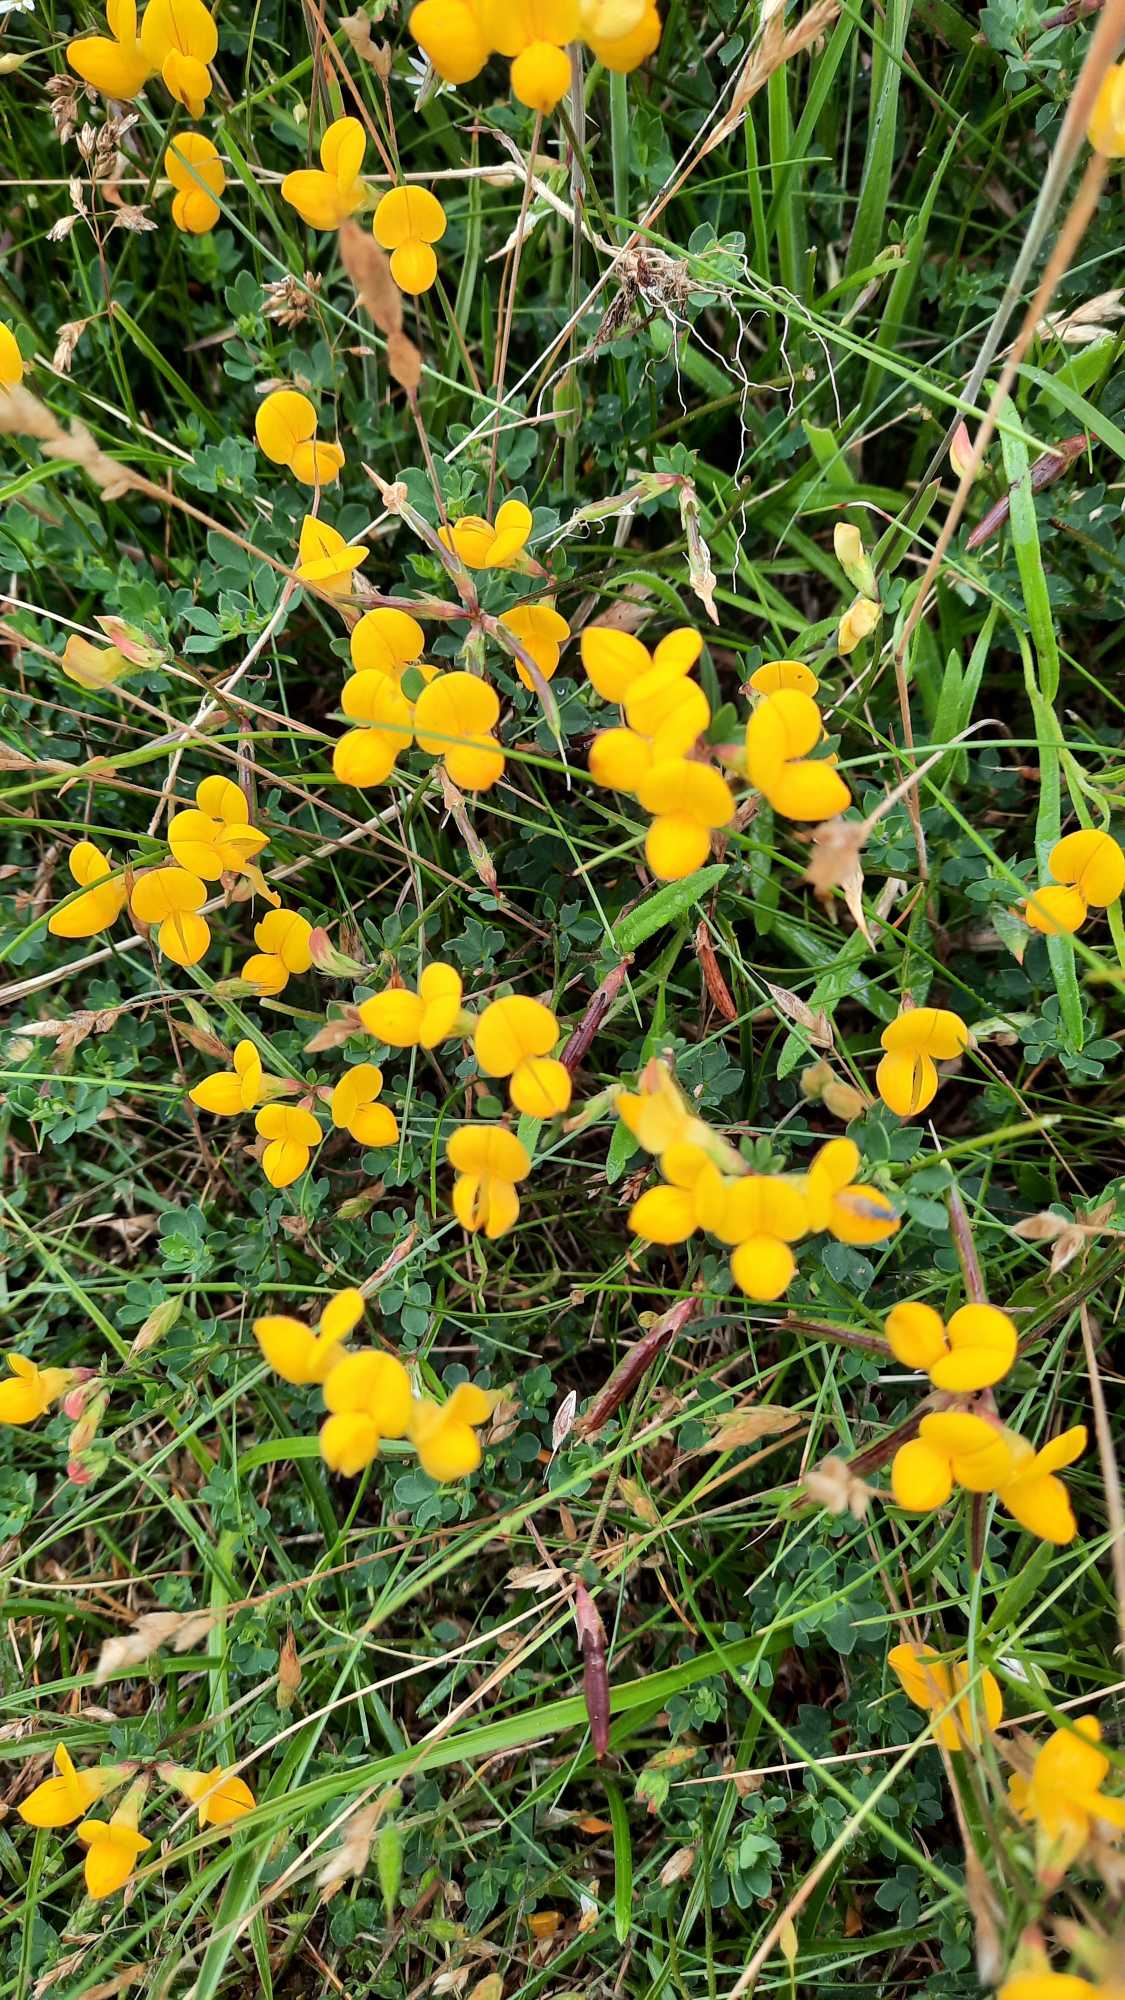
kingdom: Plantae
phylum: Tracheophyta
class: Magnoliopsida
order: Fabales
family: Fabaceae
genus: Lotus
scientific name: Lotus corniculatus
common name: Almindelig kællingetand
